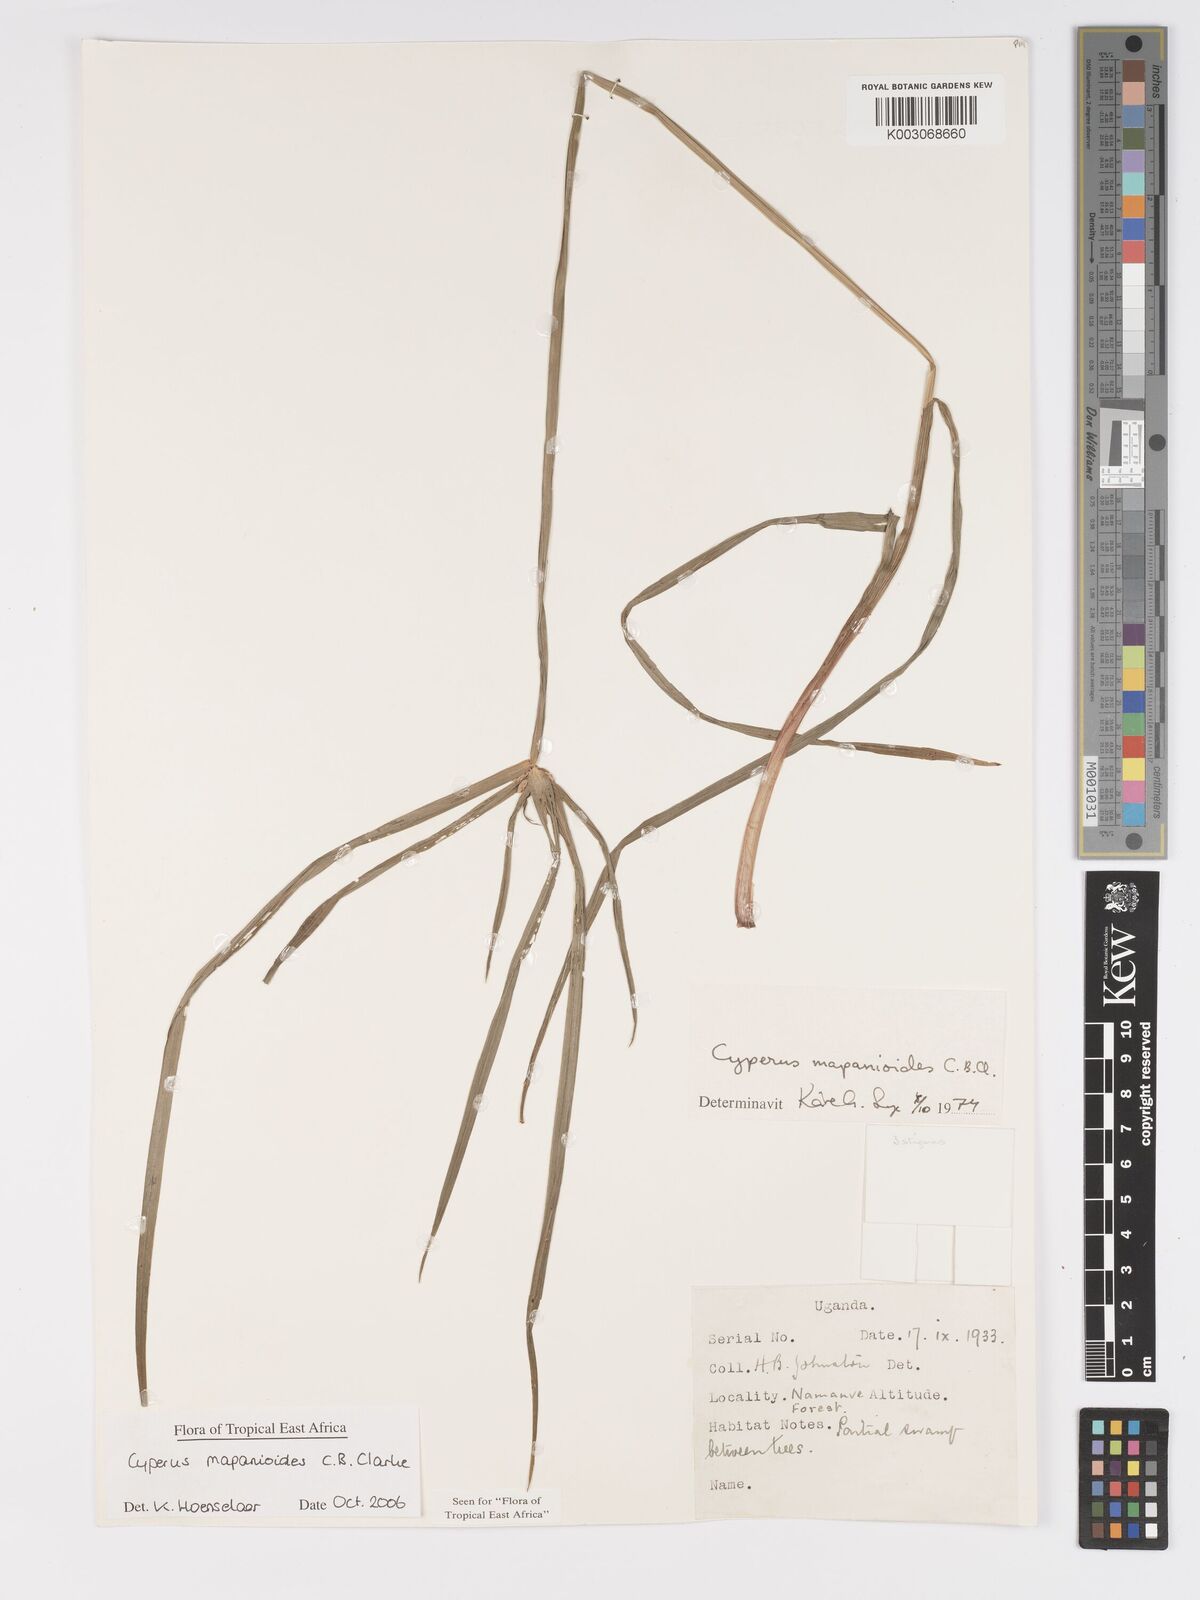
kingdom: Plantae
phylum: Tracheophyta
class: Liliopsida
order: Poales
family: Cyperaceae
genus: Cyperus
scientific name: Cyperus mapanioides
